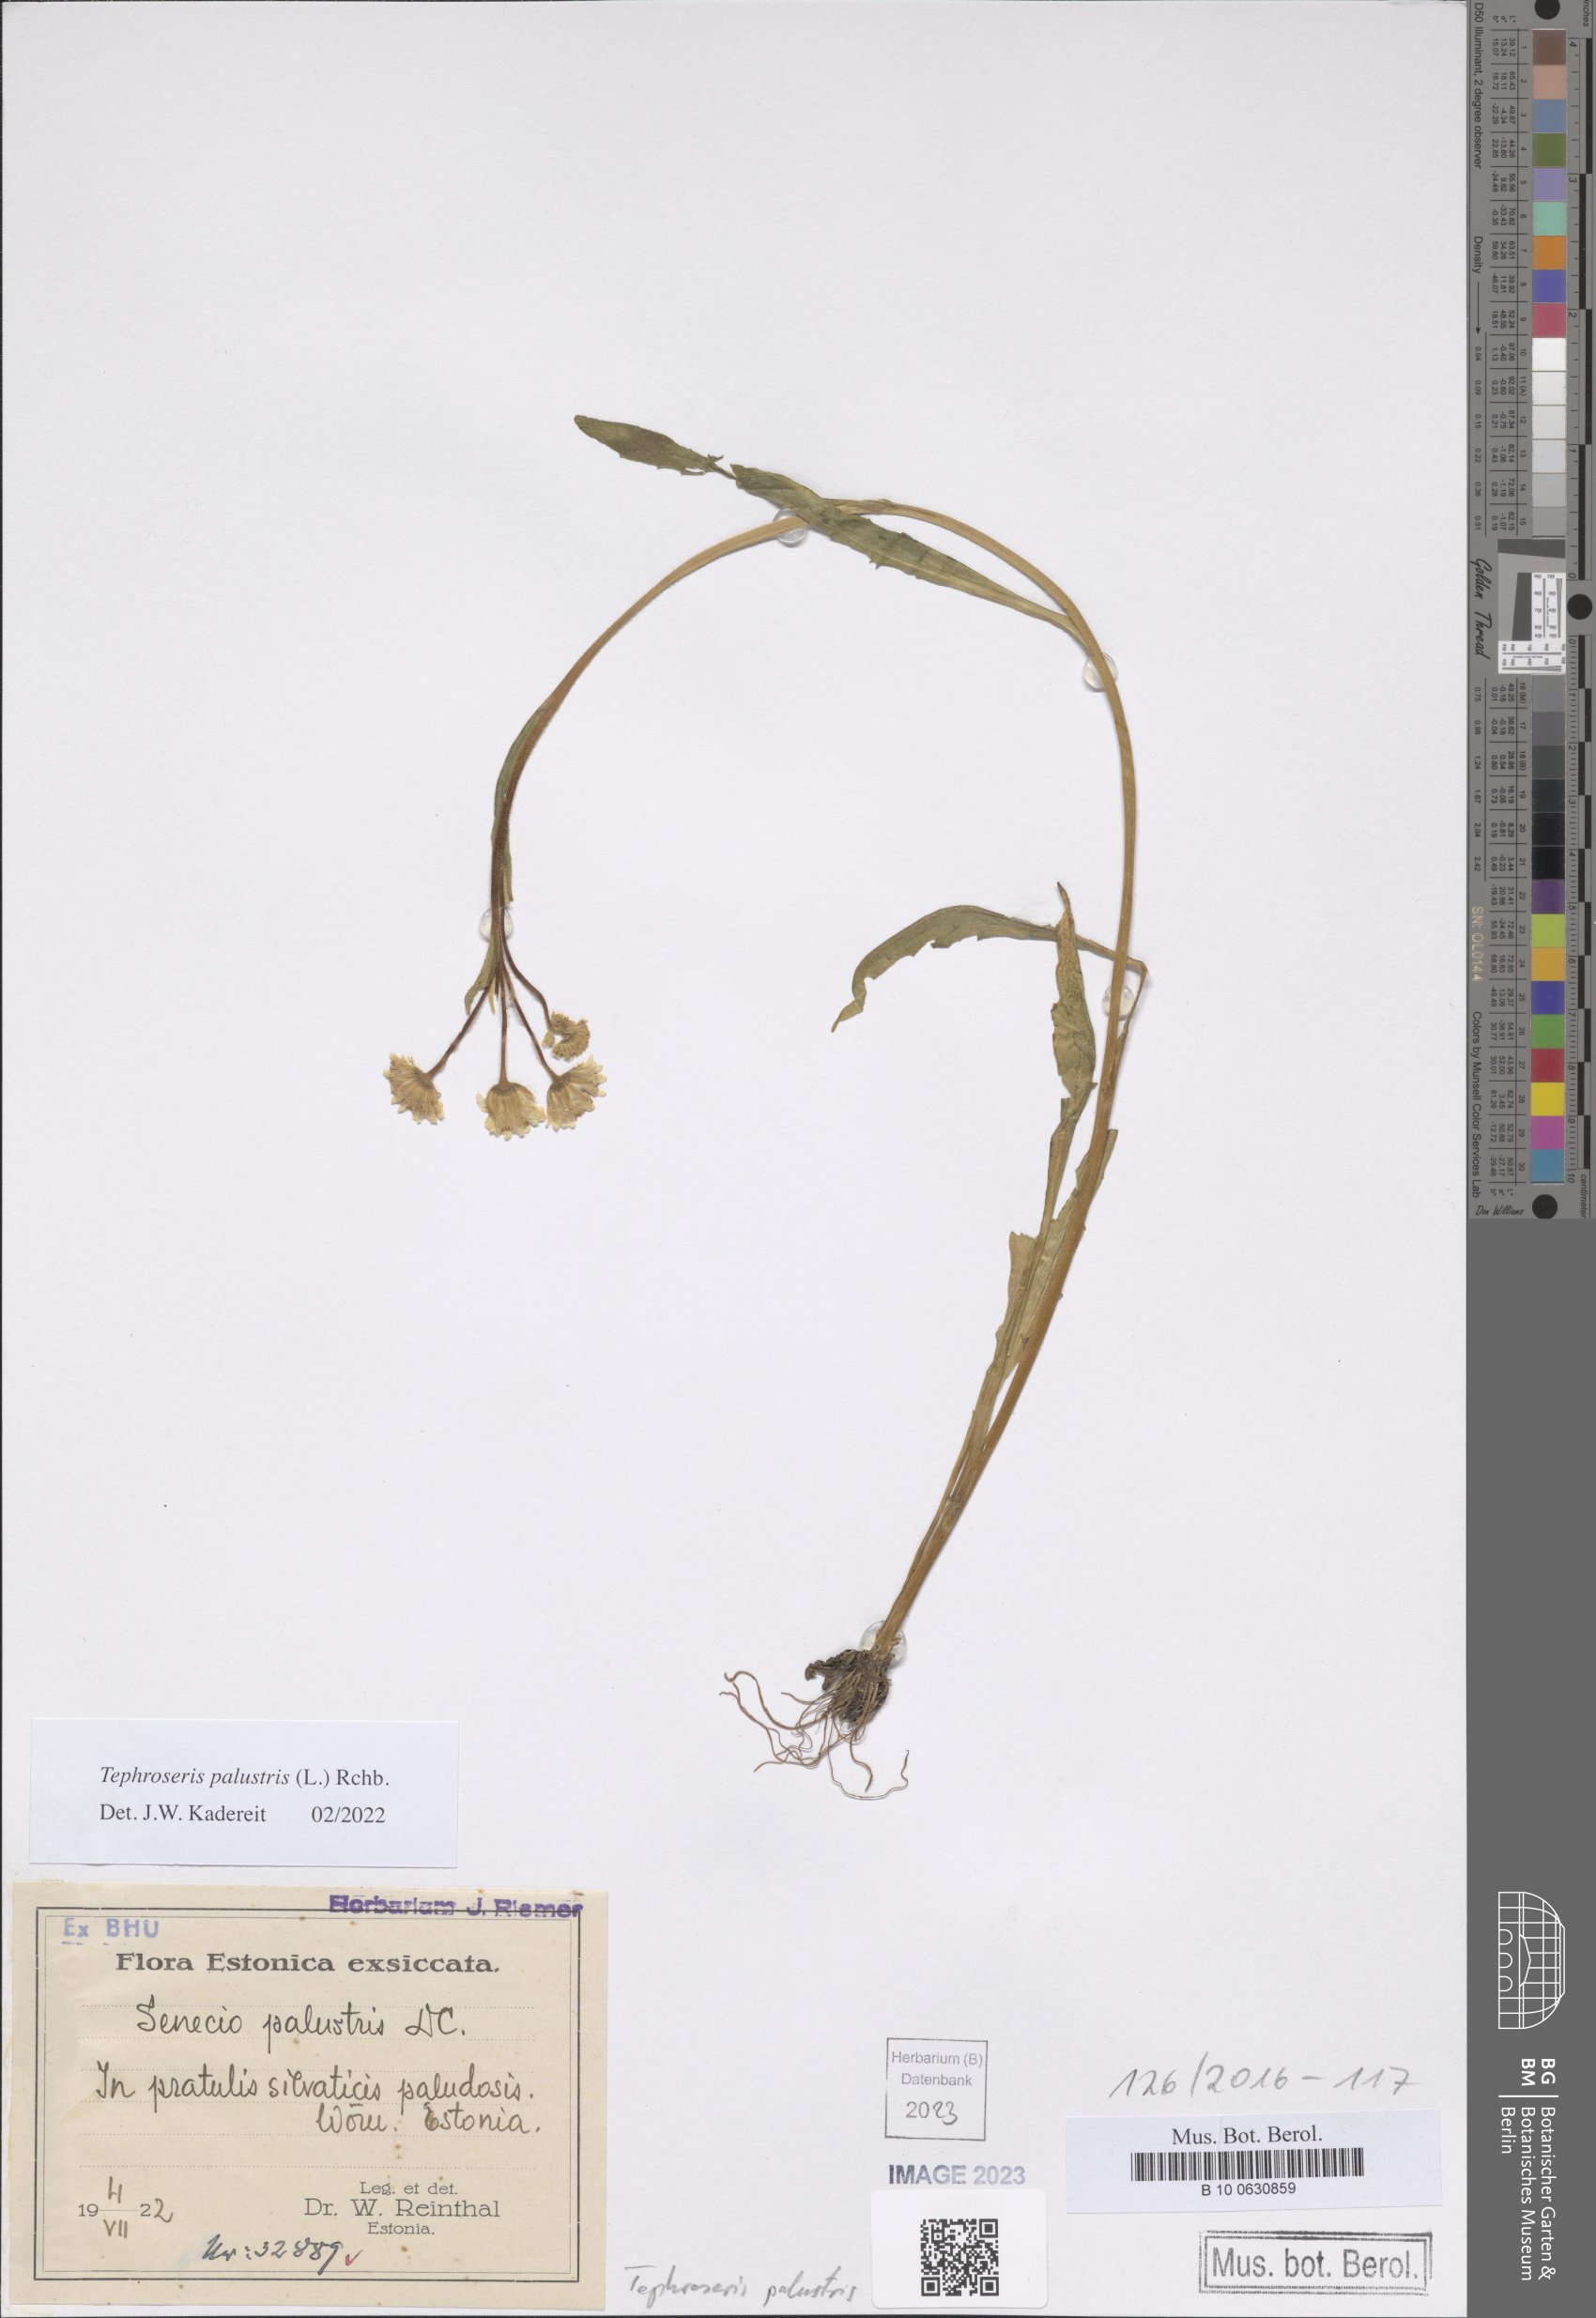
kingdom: Plantae
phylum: Tracheophyta
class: Magnoliopsida
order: Asterales
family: Asteraceae
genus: Tephroseris
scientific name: Tephroseris palustris
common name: Marsh fleawort
